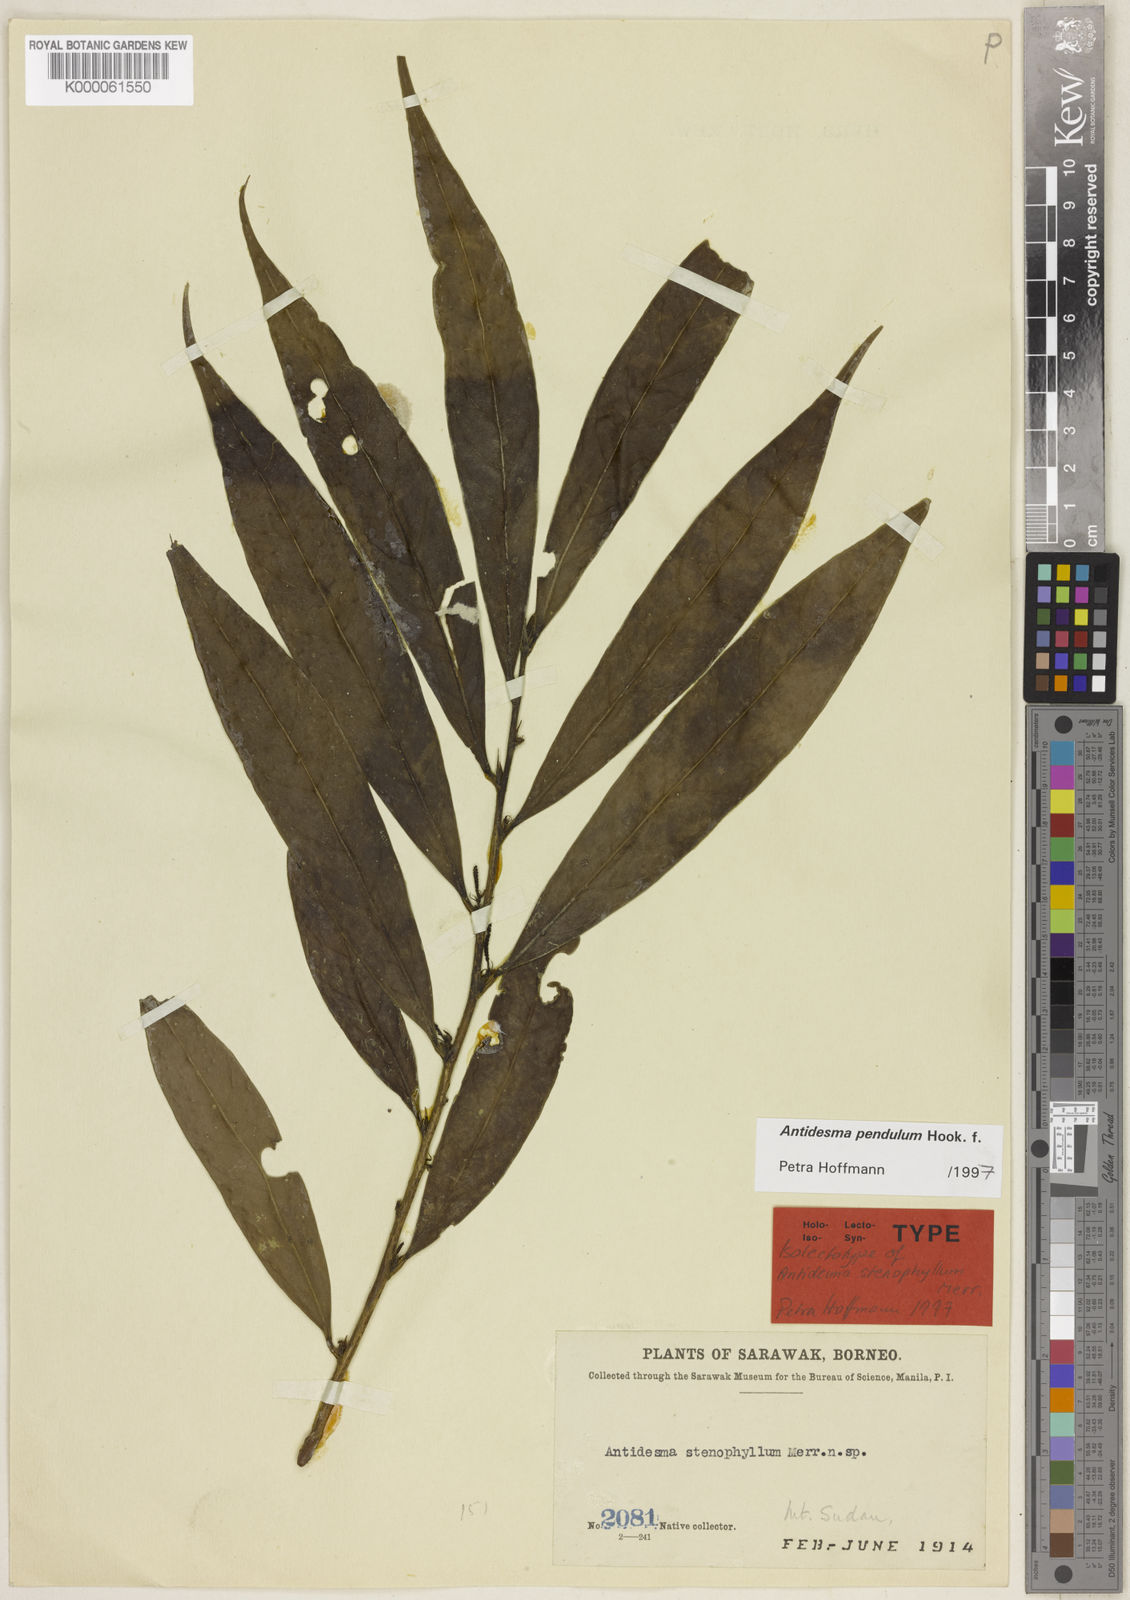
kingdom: Plantae
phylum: Tracheophyta
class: Magnoliopsida
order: Malpighiales
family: Phyllanthaceae
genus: Antidesma
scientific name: Antidesma pendulum
